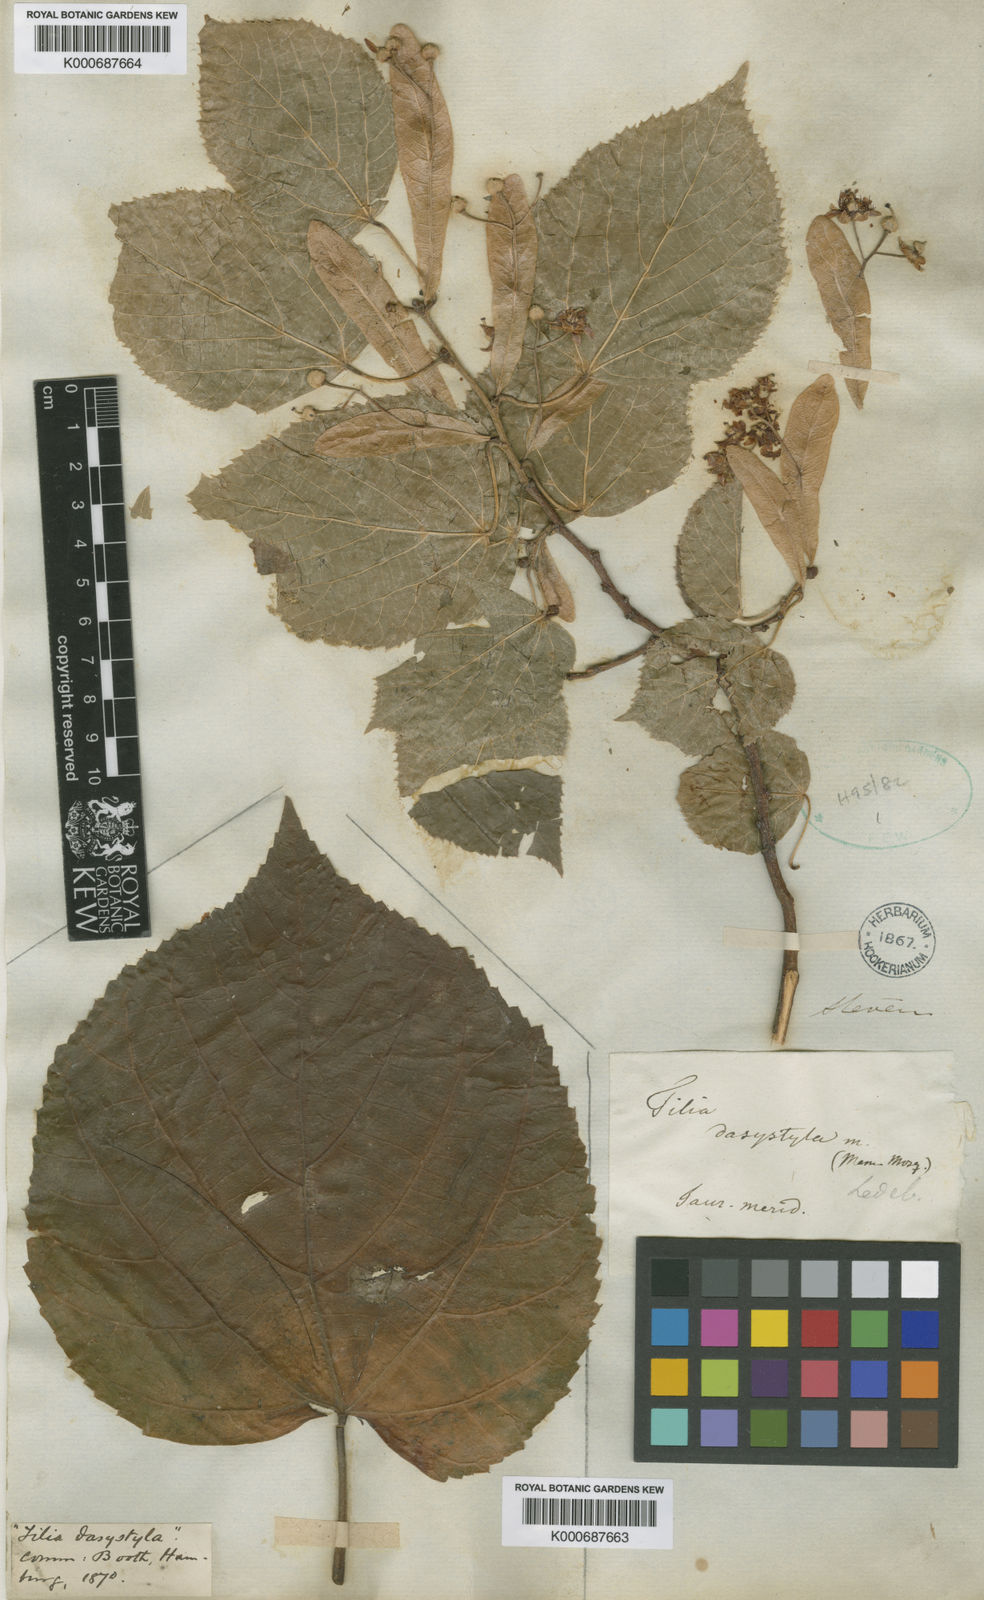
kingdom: Plantae
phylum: Tracheophyta
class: Magnoliopsida
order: Malvales
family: Malvaceae
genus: Tilia
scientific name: Tilia dasystyla
